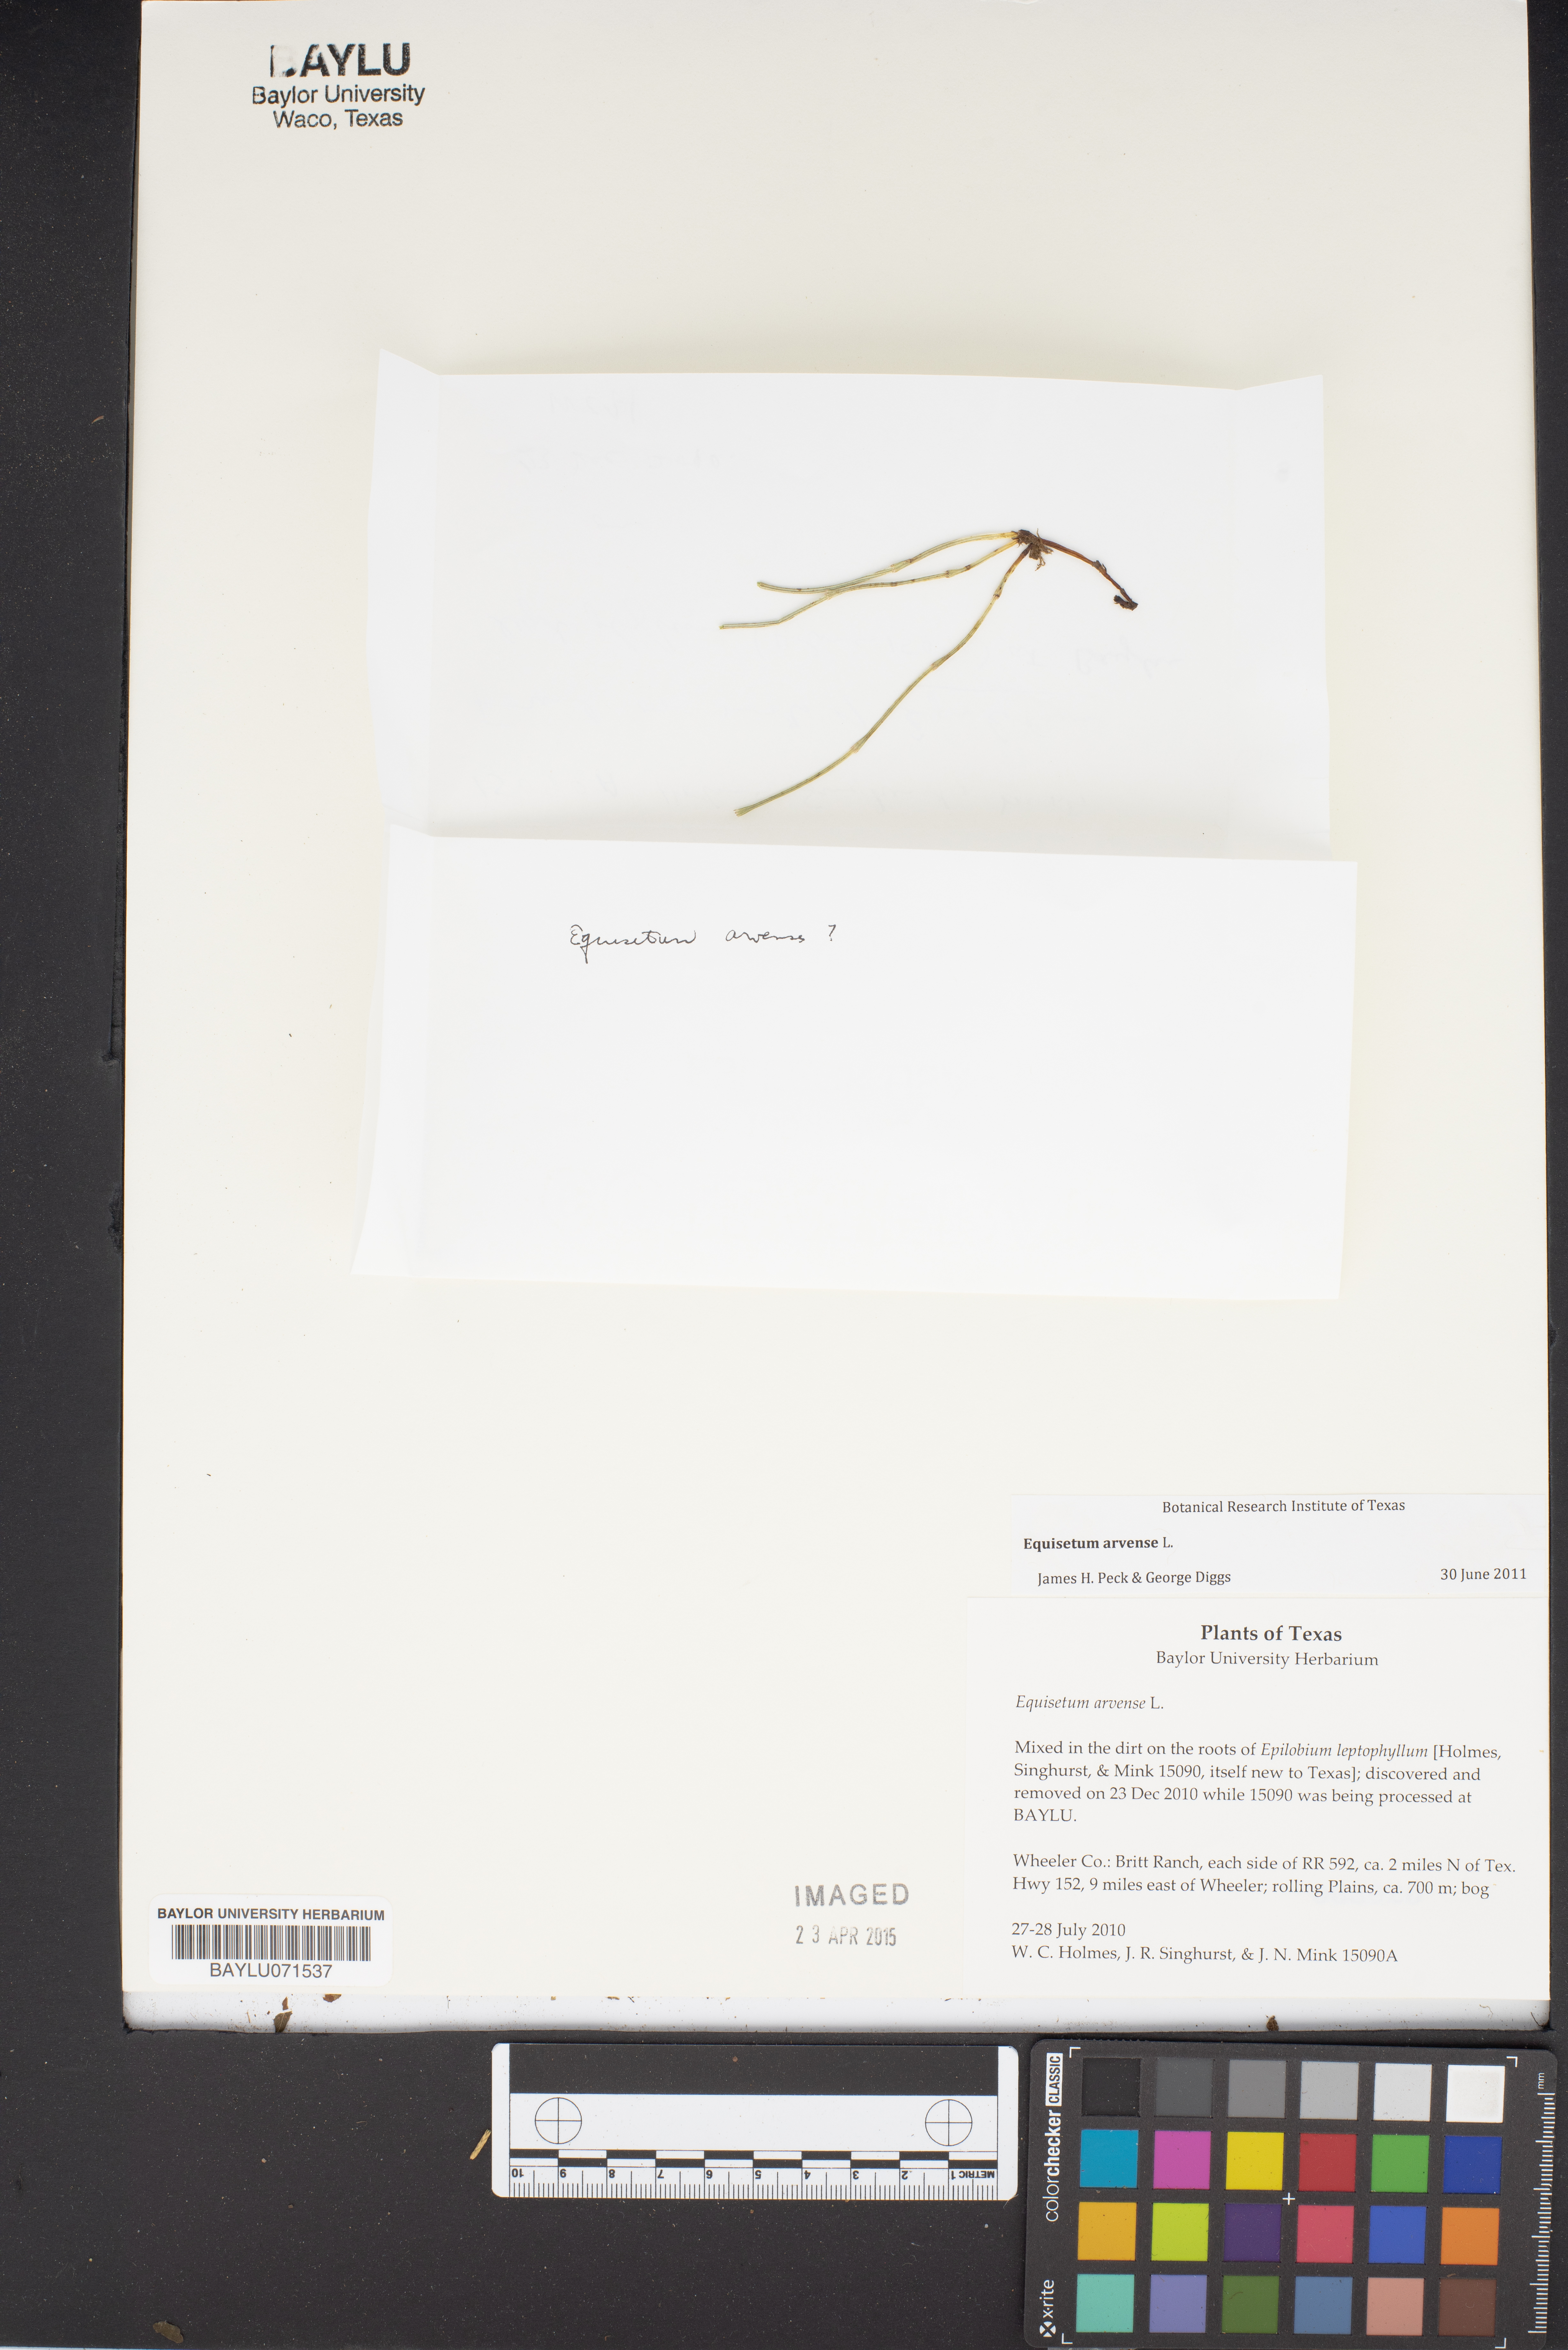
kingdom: Plantae
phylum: Tracheophyta
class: Polypodiopsida
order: Equisetales
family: Equisetaceae
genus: Equisetum
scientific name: Equisetum arvense
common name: Field horsetail
